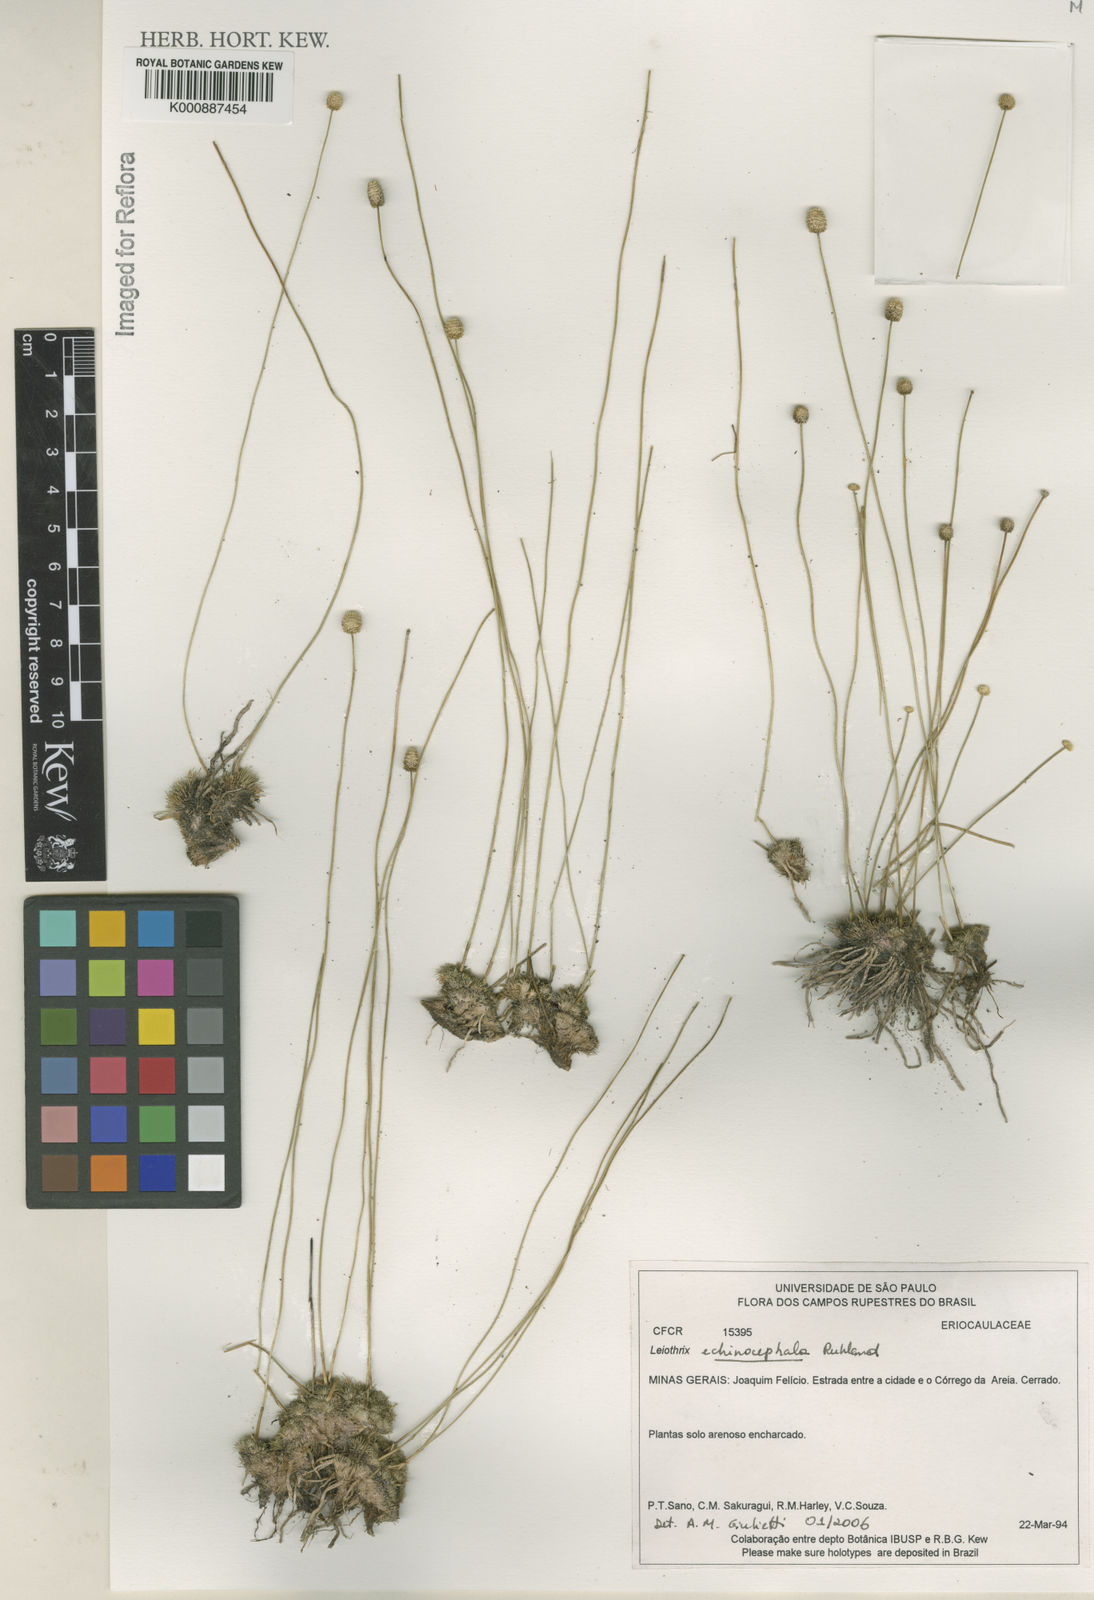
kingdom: Plantae
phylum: Tracheophyta
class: Liliopsida
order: Poales
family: Eriocaulaceae
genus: Leiothrix
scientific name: Leiothrix echinocephala
